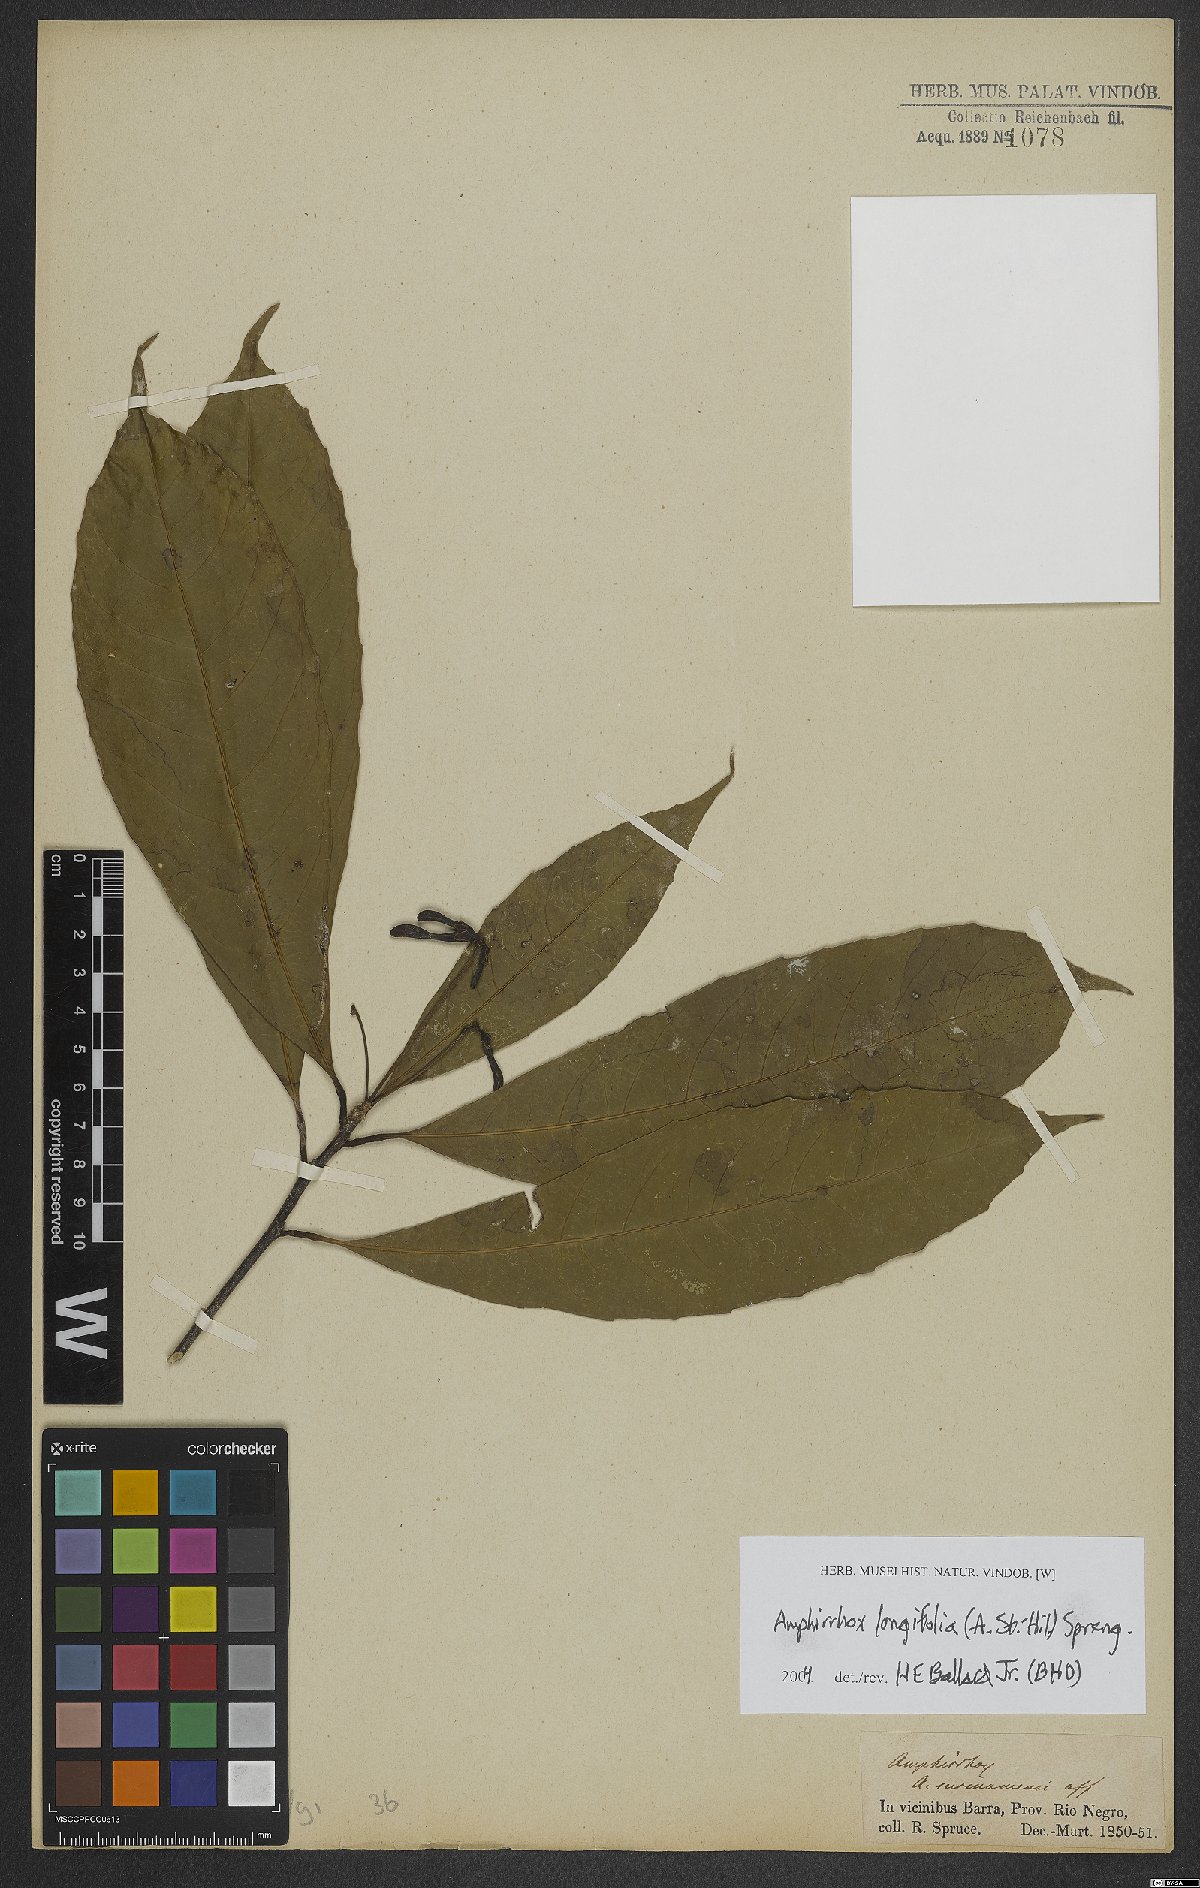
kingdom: Plantae
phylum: Tracheophyta
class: Magnoliopsida
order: Malpighiales
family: Violaceae
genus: Amphirrhox
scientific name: Amphirrhox longifolia
